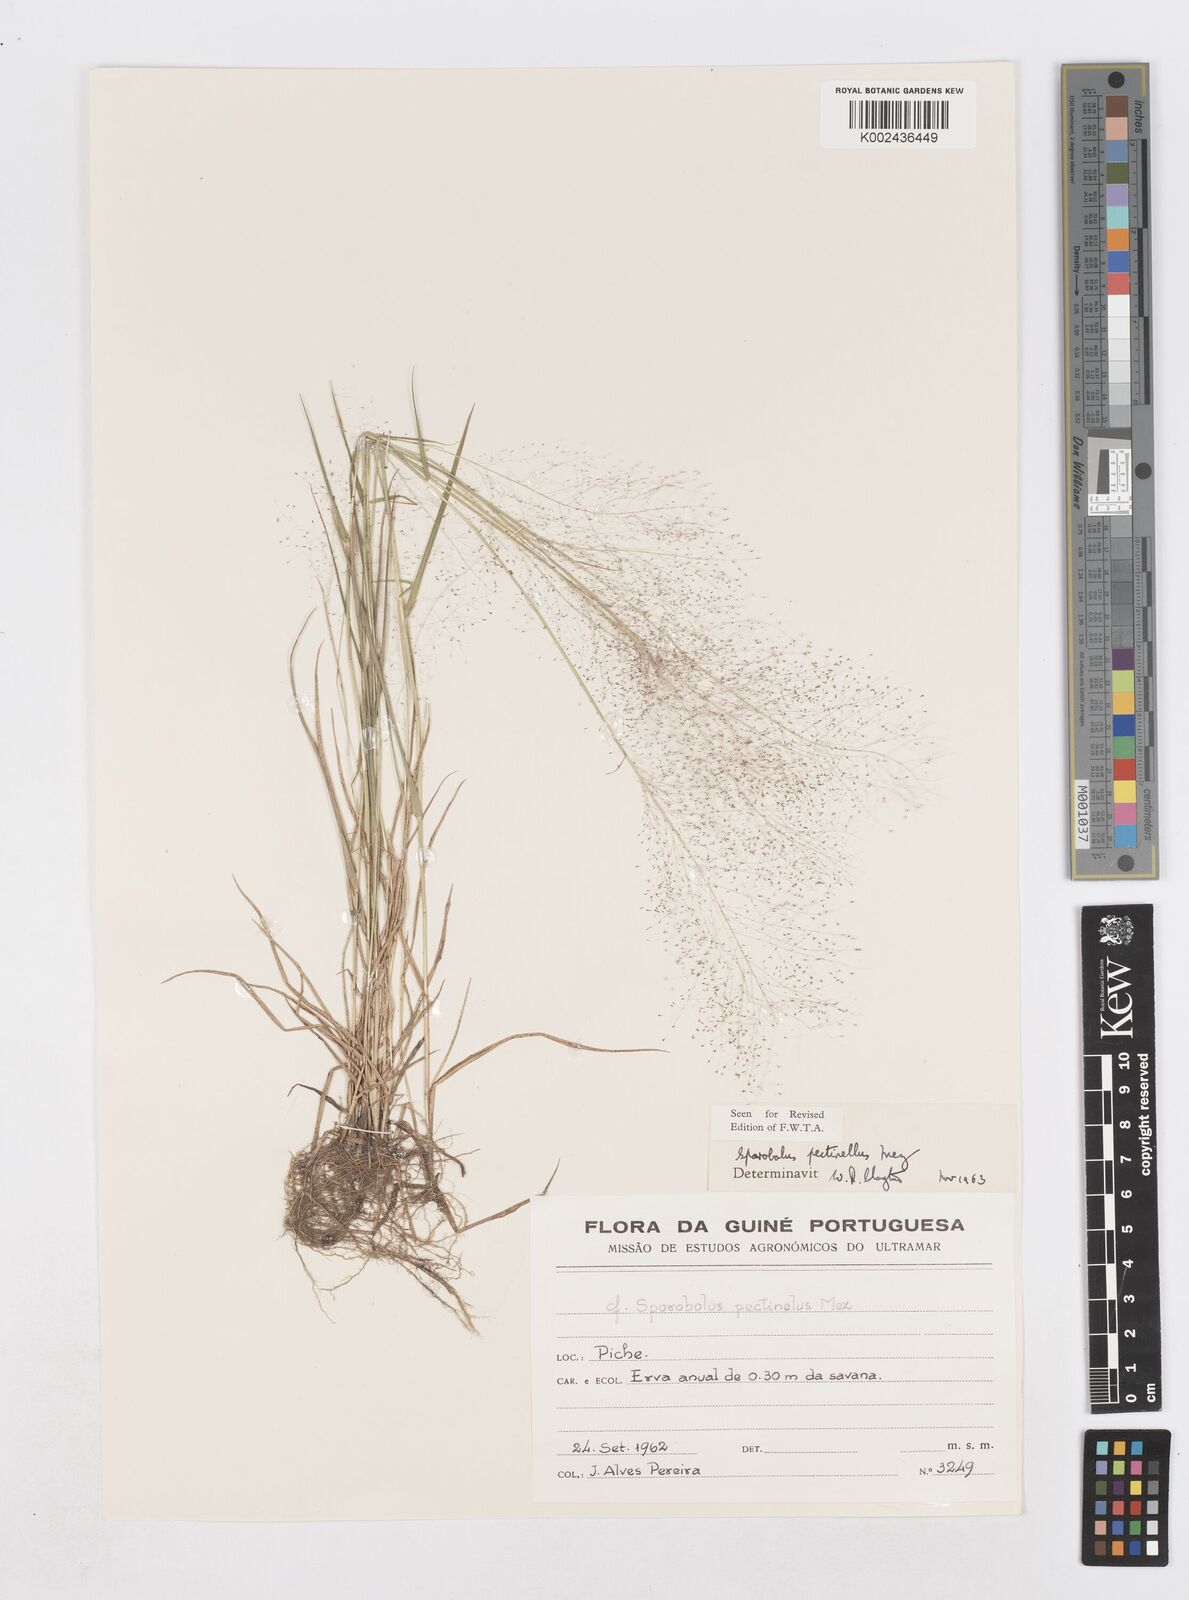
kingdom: Plantae
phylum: Tracheophyta
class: Liliopsida
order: Poales
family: Poaceae
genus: Sporobolus
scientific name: Sporobolus pectinellus
